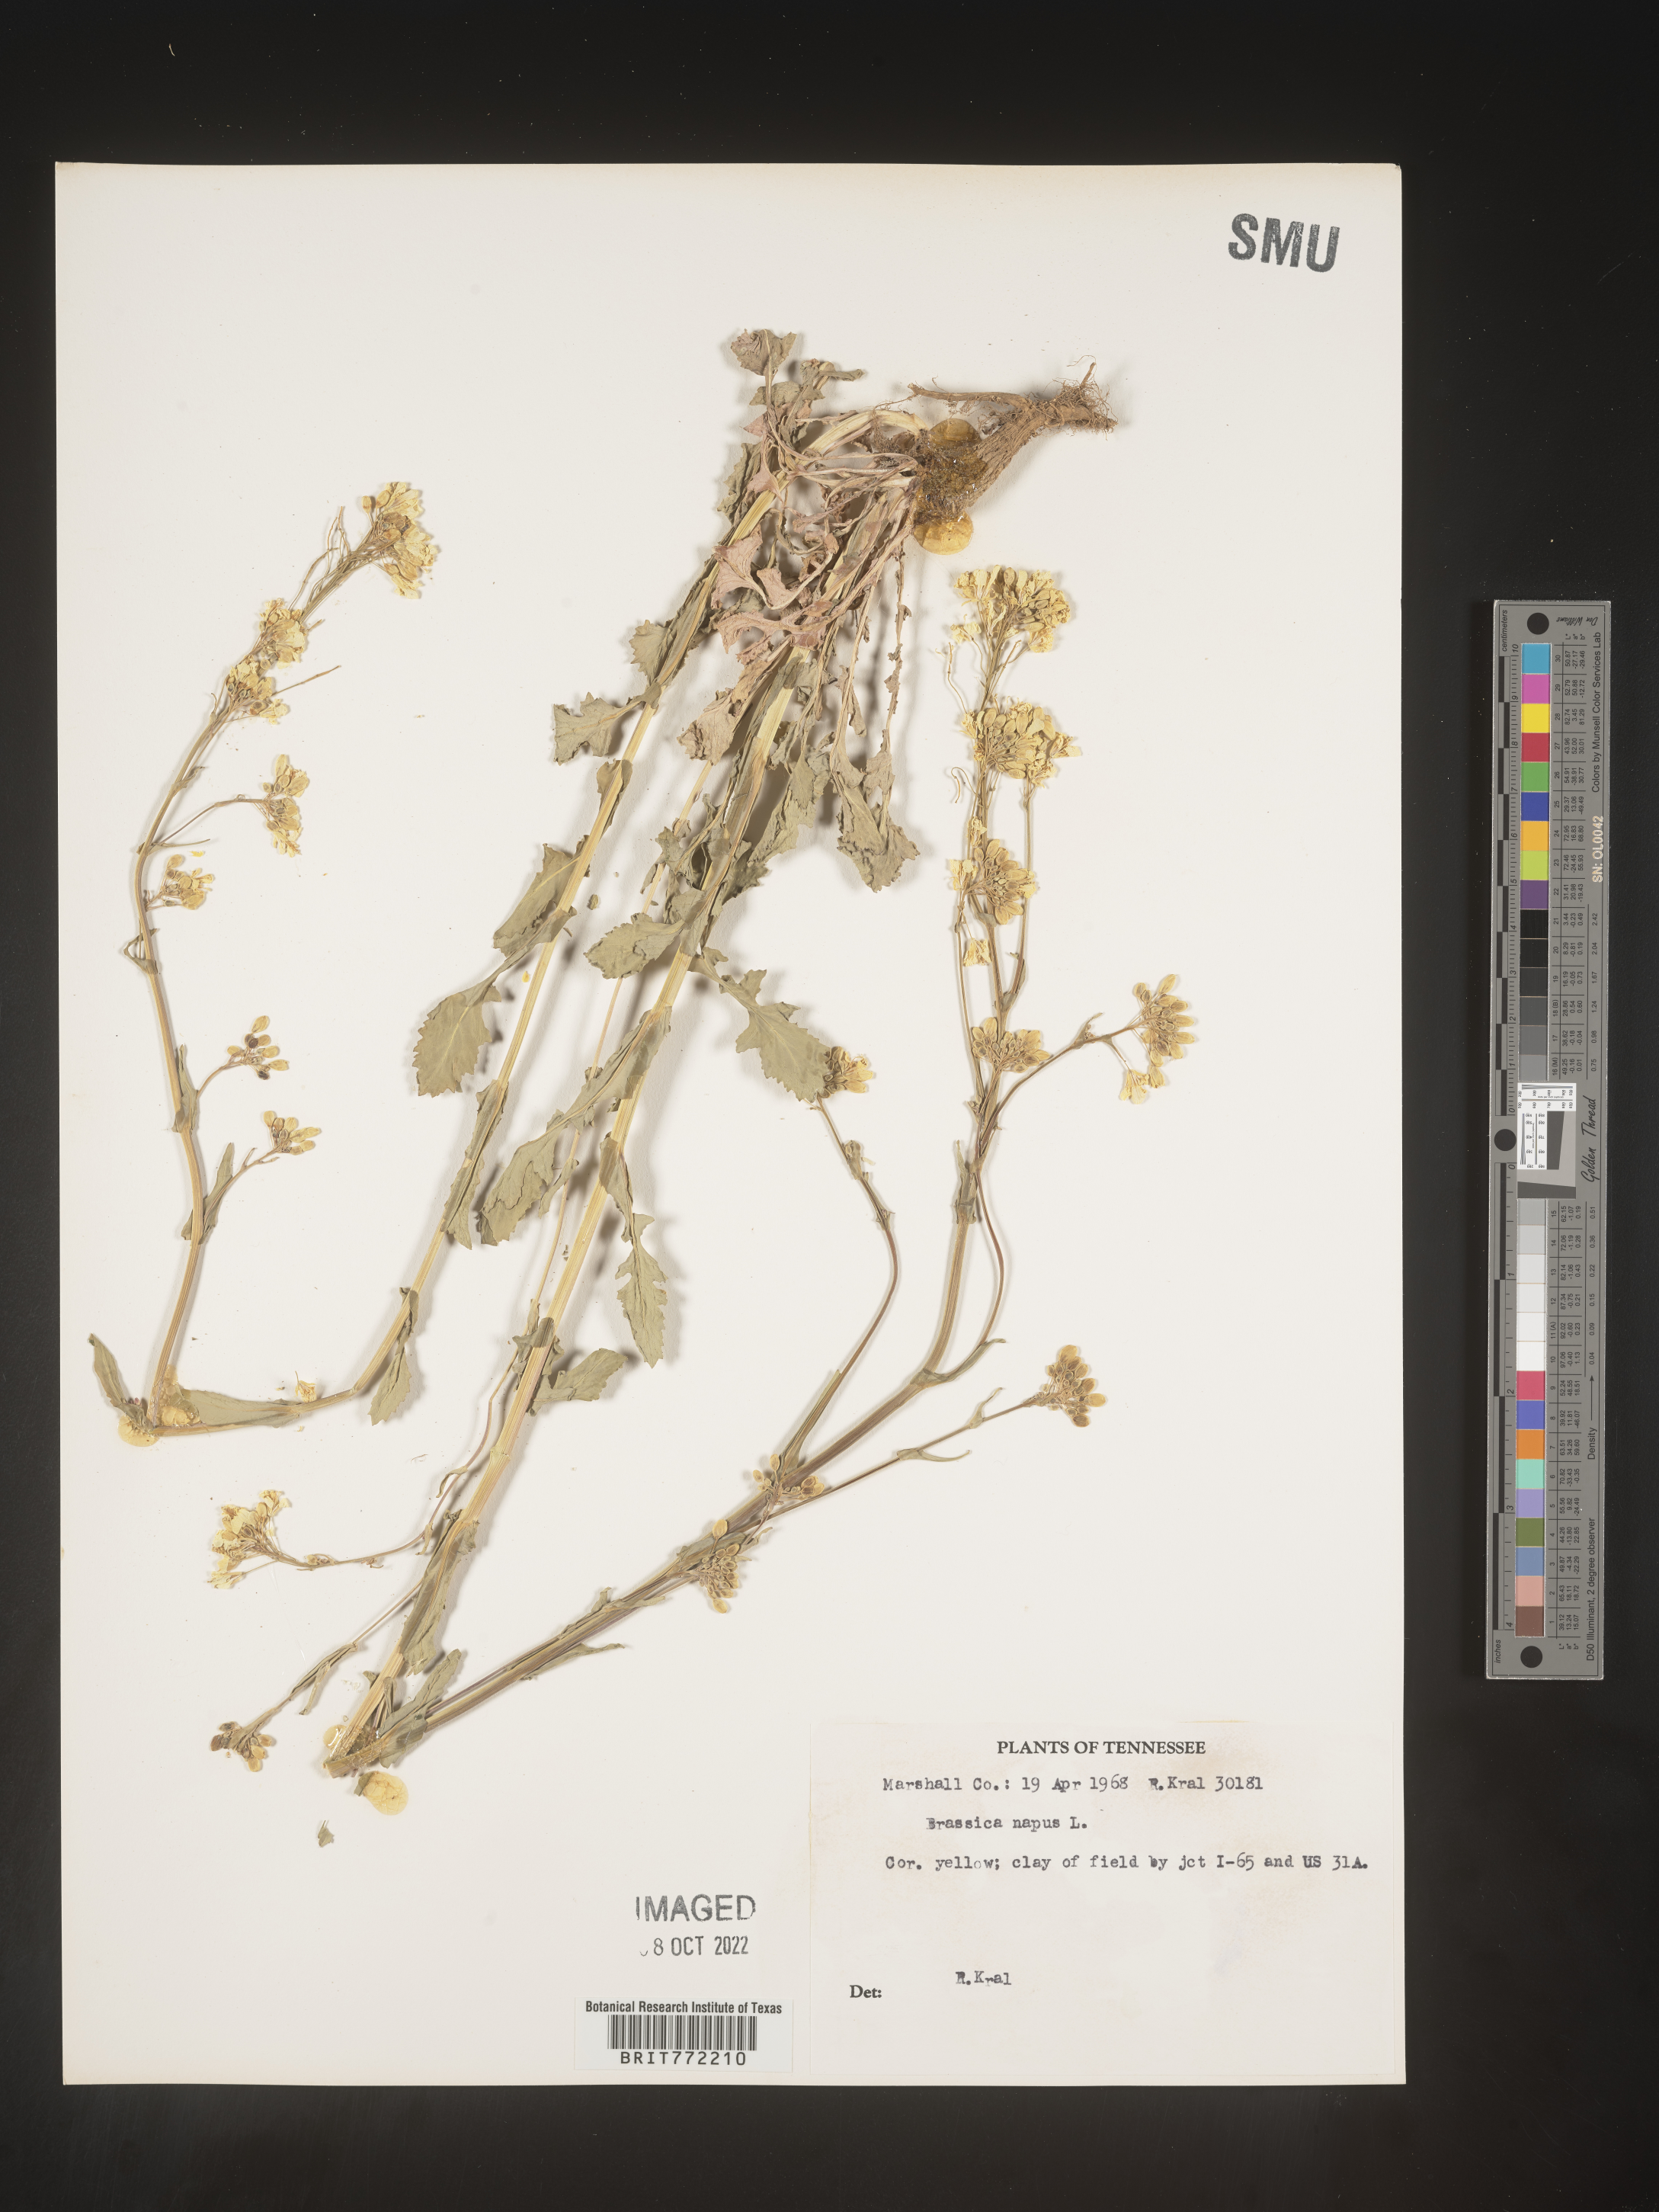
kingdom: Plantae
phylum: Tracheophyta
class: Magnoliopsida
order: Brassicales
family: Brassicaceae
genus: Brassica
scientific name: Brassica napus
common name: Rape
